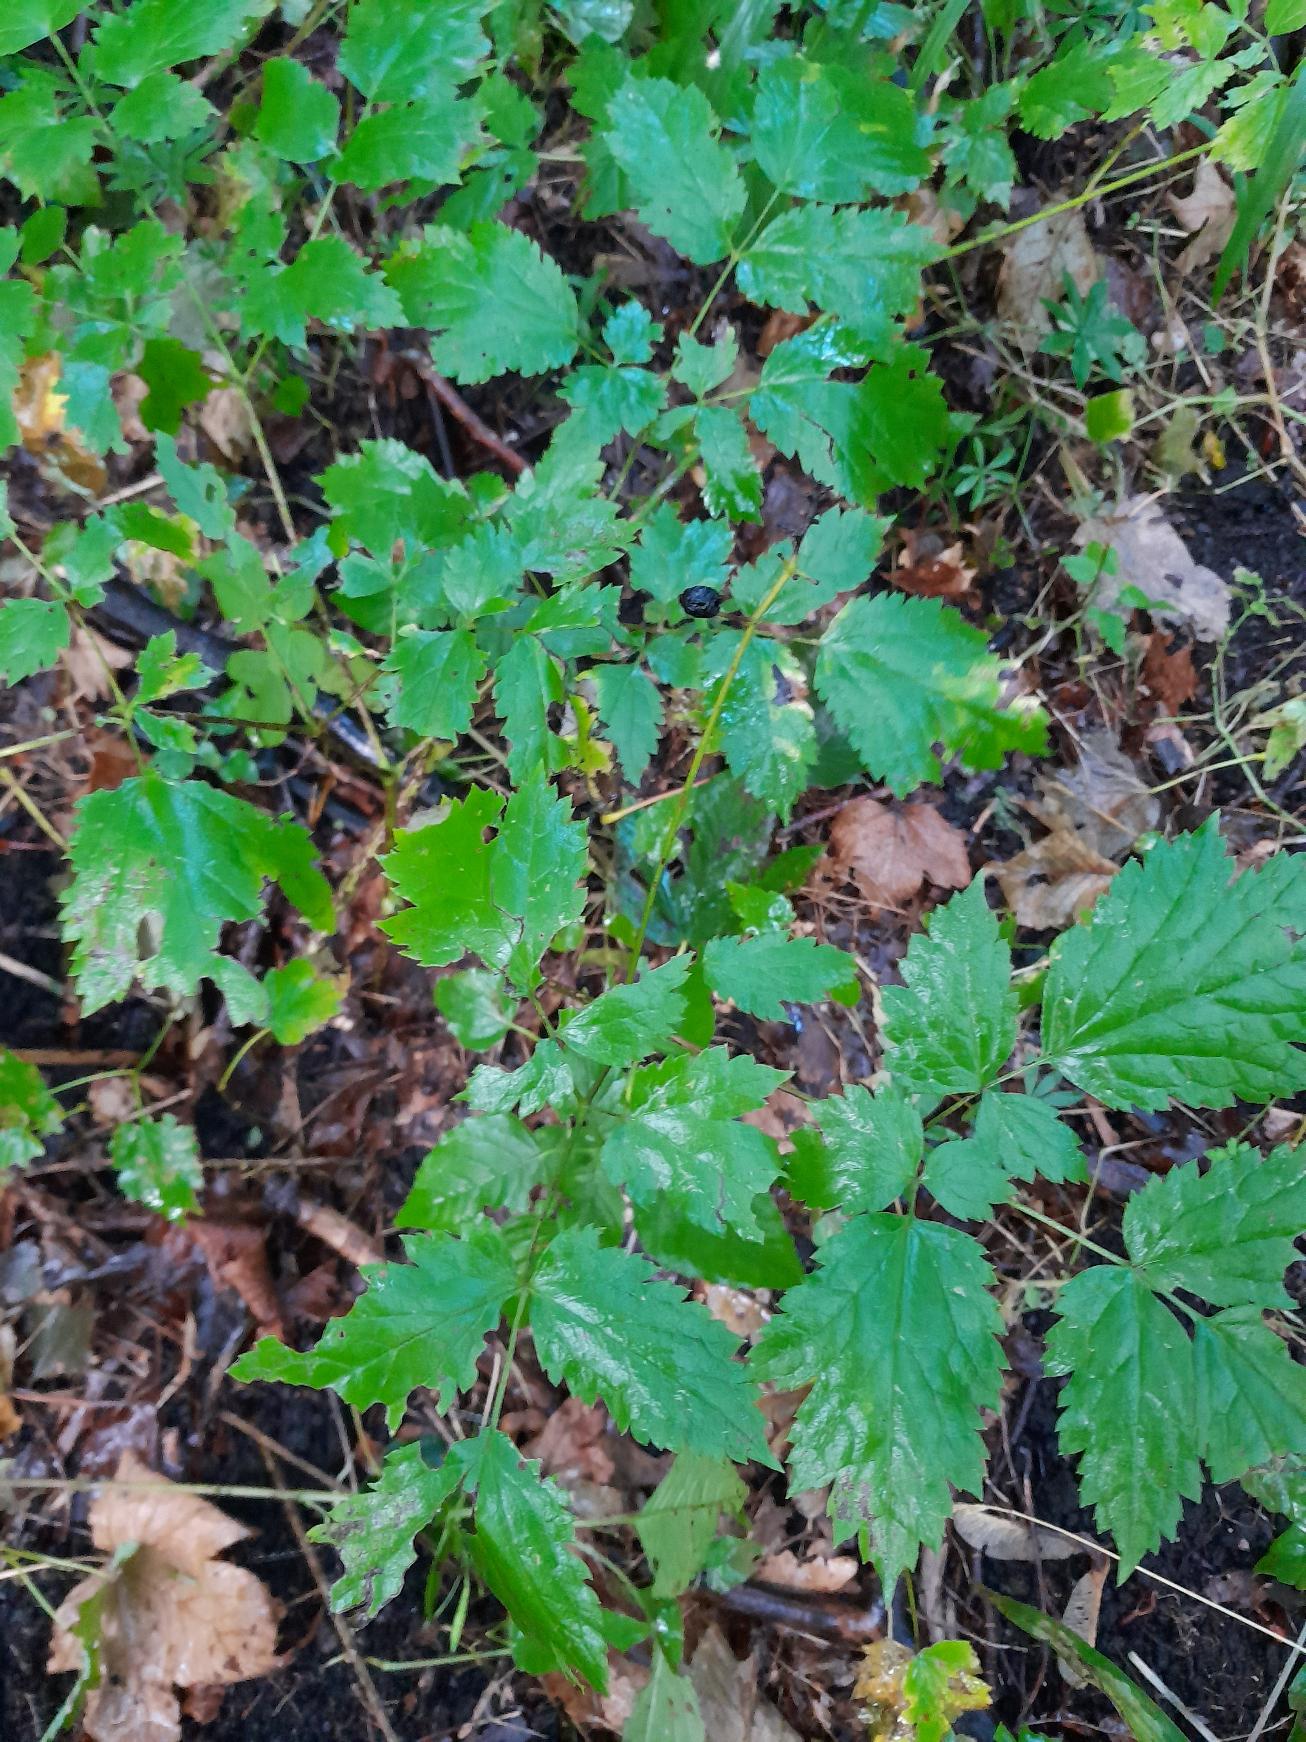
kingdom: Plantae
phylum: Tracheophyta
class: Magnoliopsida
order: Ranunculales
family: Ranunculaceae
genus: Actaea
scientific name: Actaea spicata
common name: Druemunke
